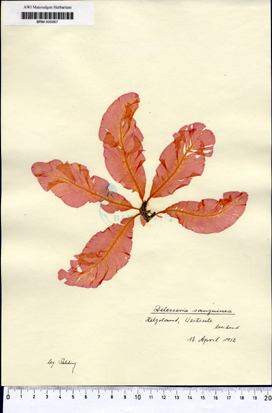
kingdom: Plantae
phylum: Rhodophyta
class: Florideophyceae
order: Ceramiales
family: Delesseriaceae
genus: Delesseria
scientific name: Delesseria sanguinea
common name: Sea beech
